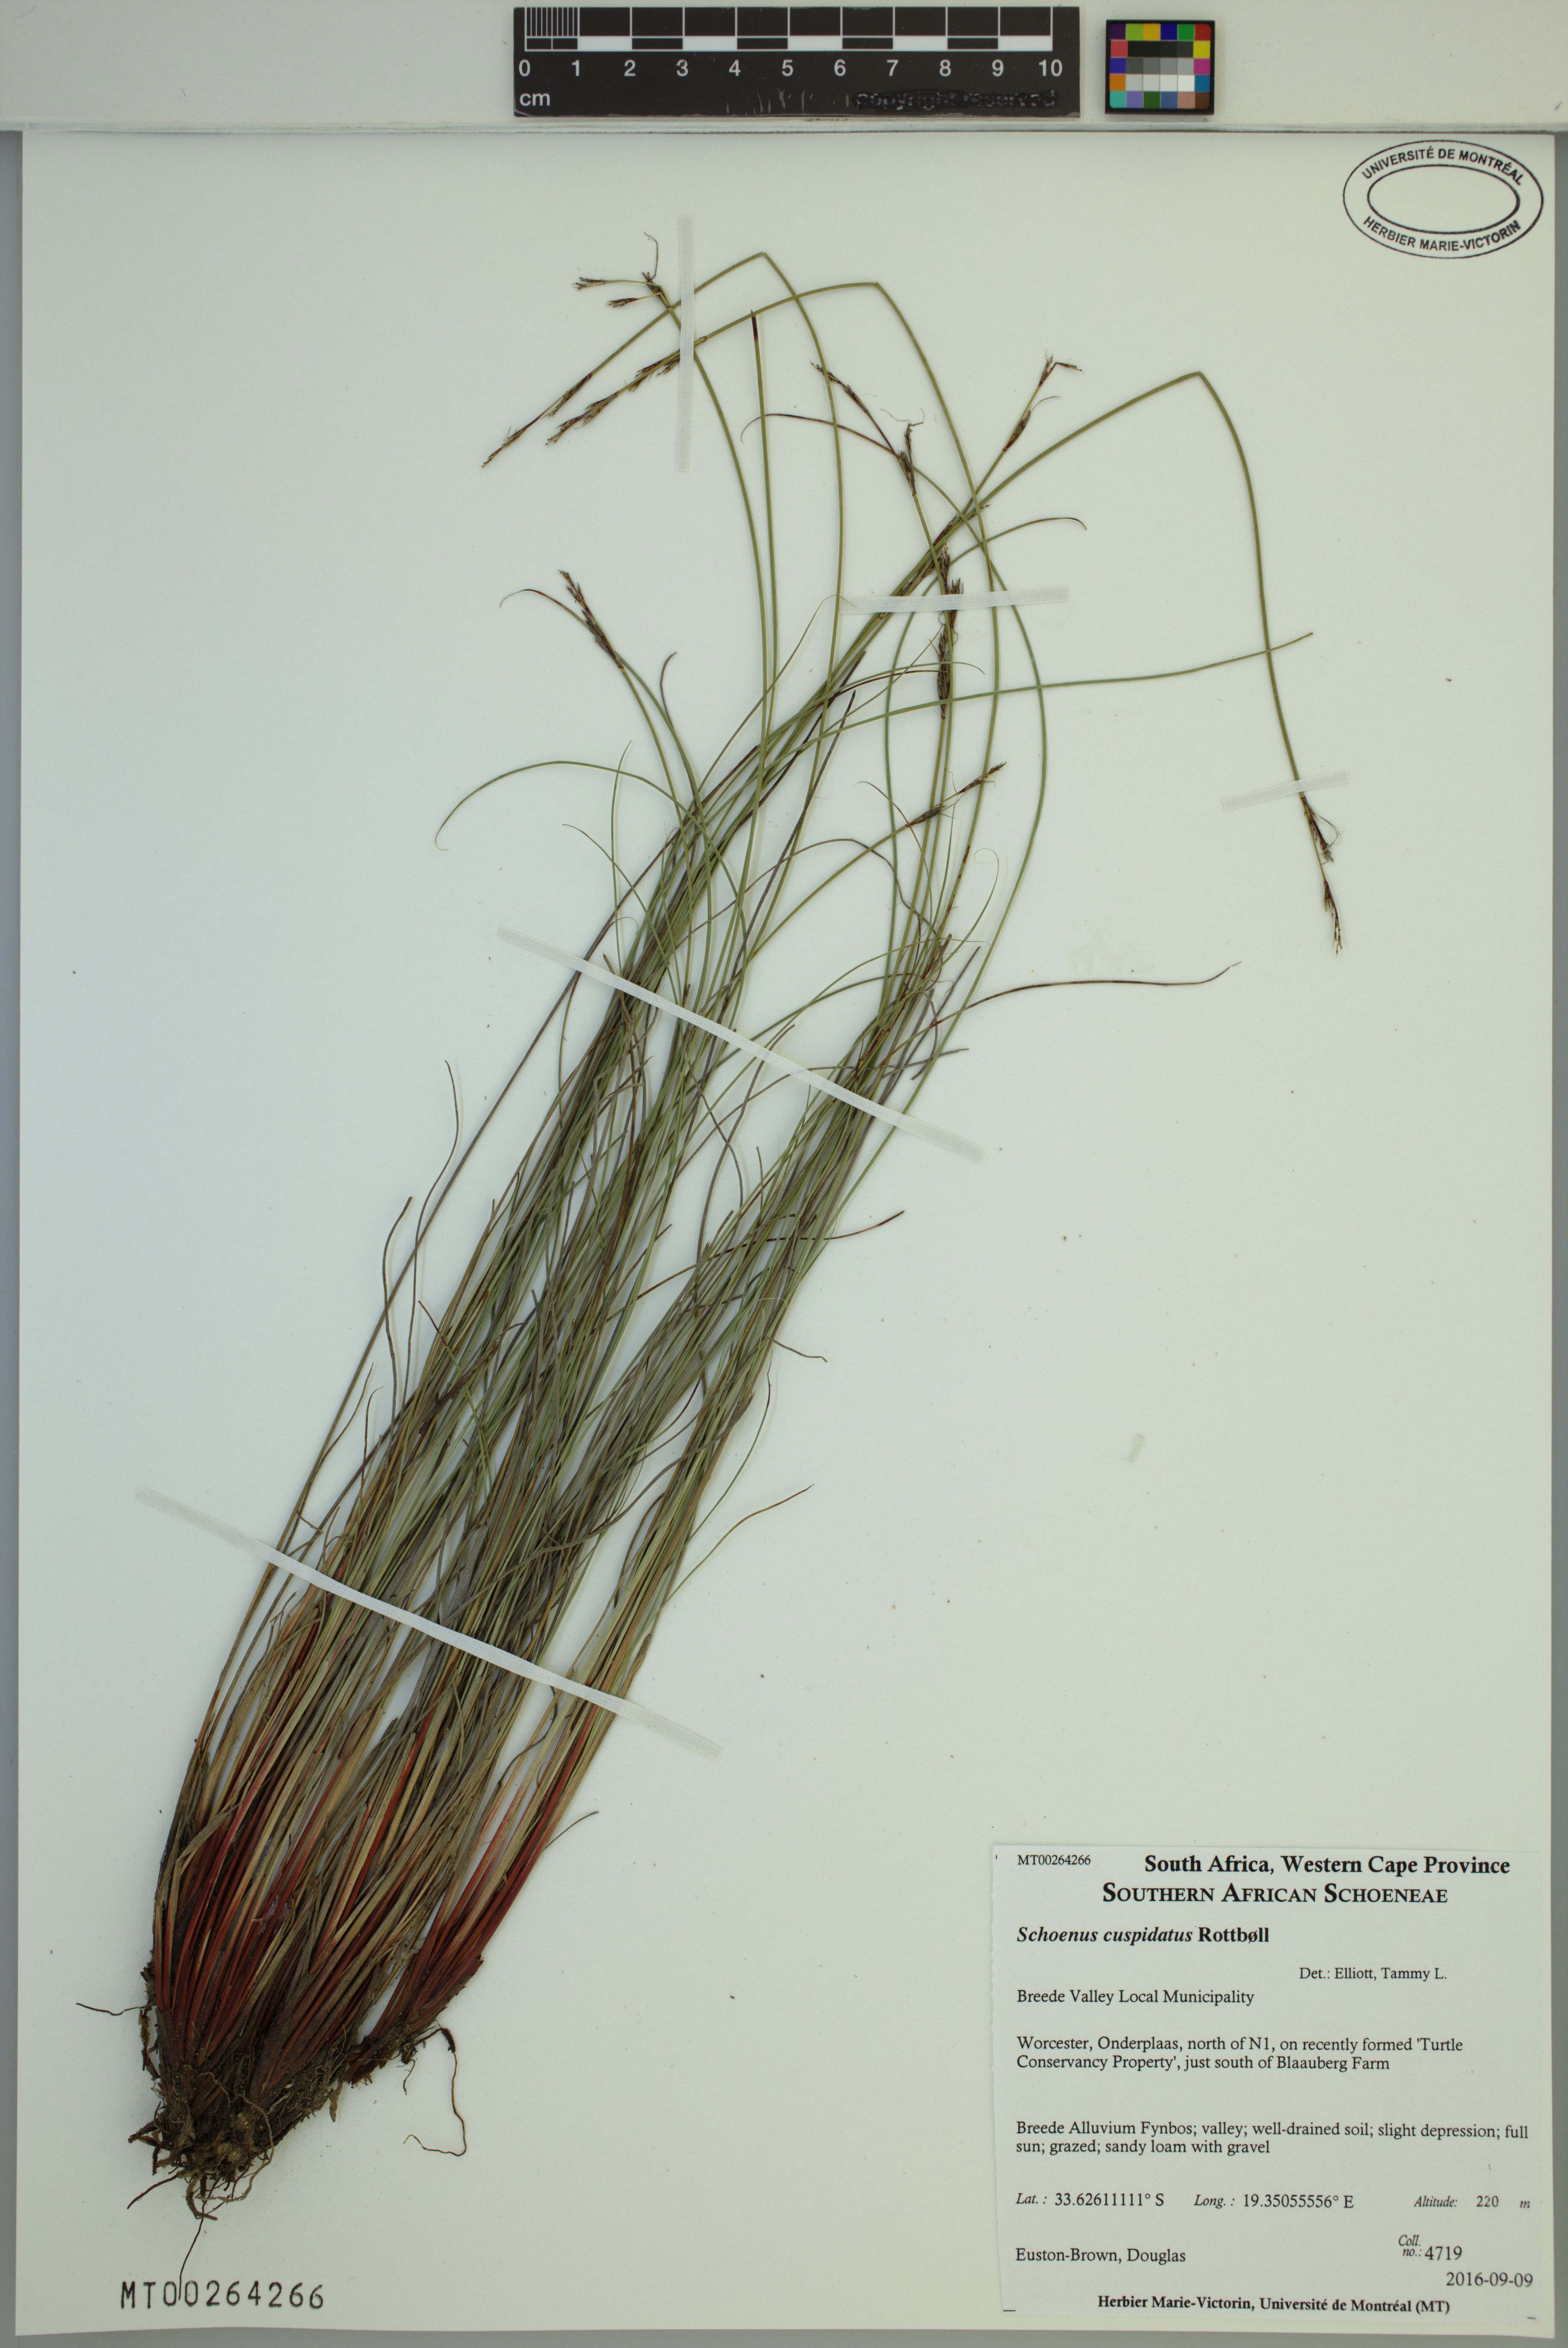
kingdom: Plantae
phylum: Tracheophyta
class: Liliopsida
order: Poales
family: Cyperaceae
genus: Schoenus
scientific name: Schoenus cuspidatus
